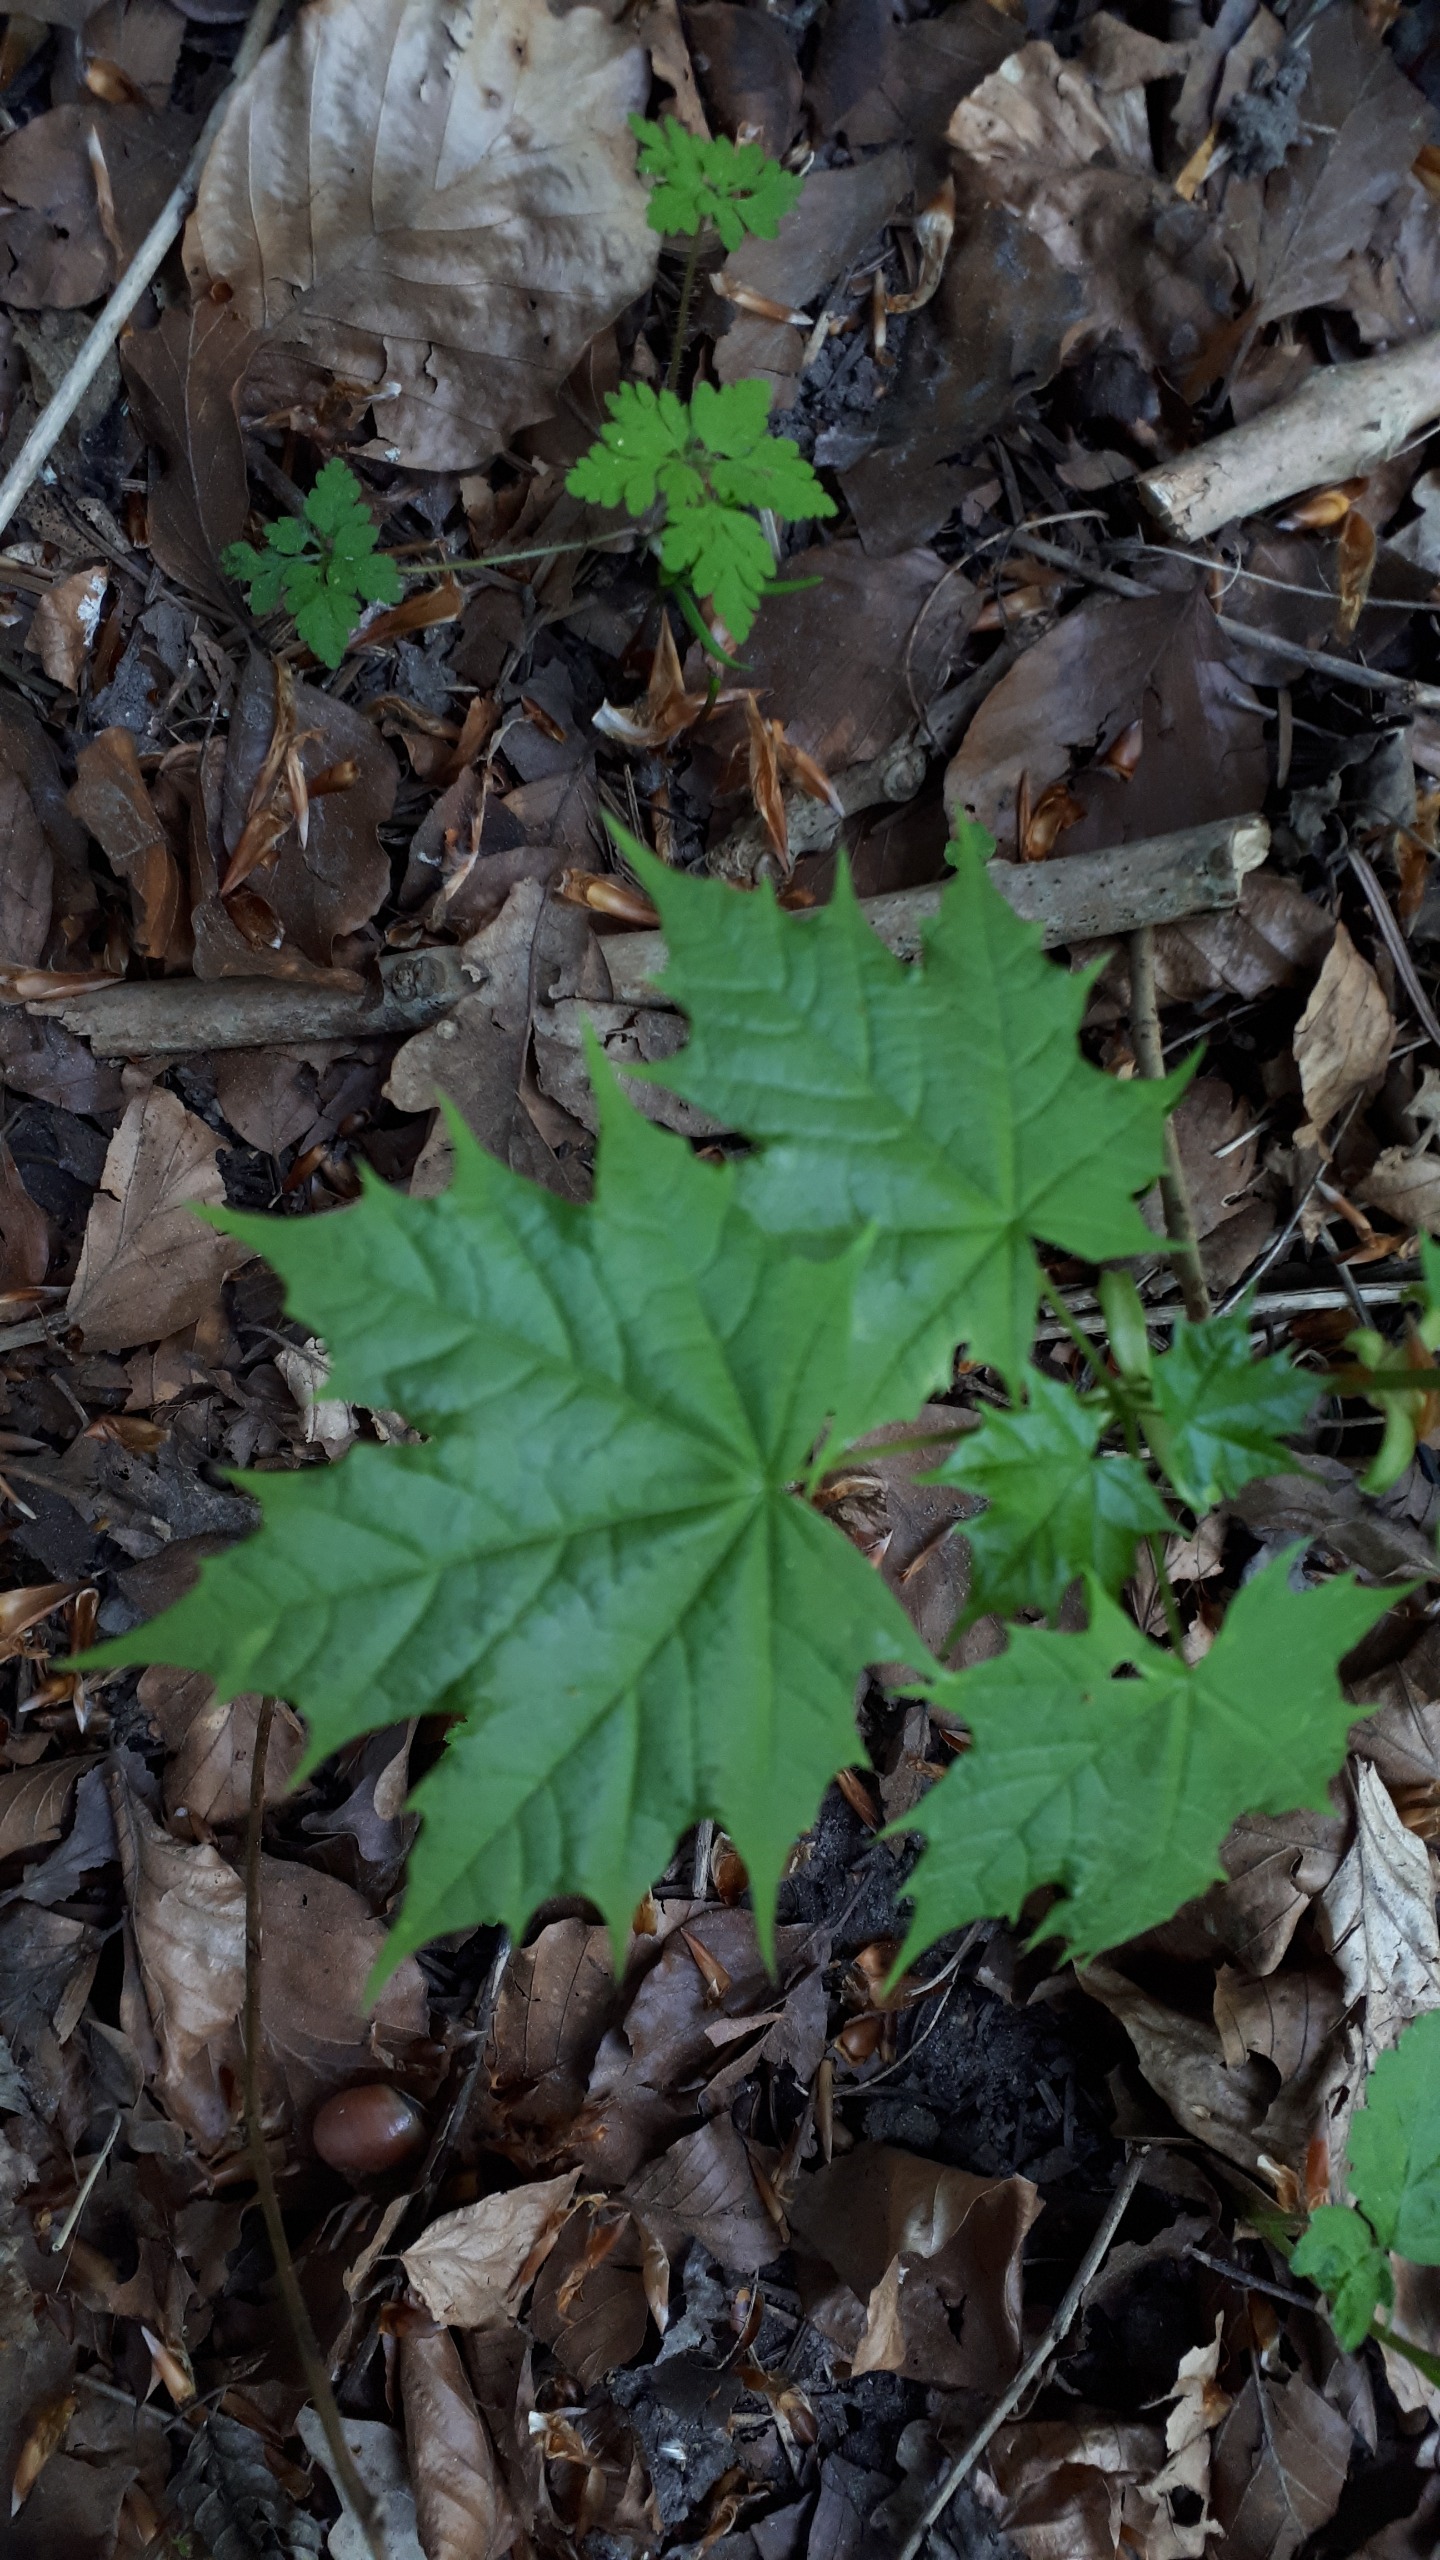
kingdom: Plantae
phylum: Tracheophyta
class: Magnoliopsida
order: Sapindales
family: Sapindaceae
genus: Acer
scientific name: Acer platanoides
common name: Spids-løn
